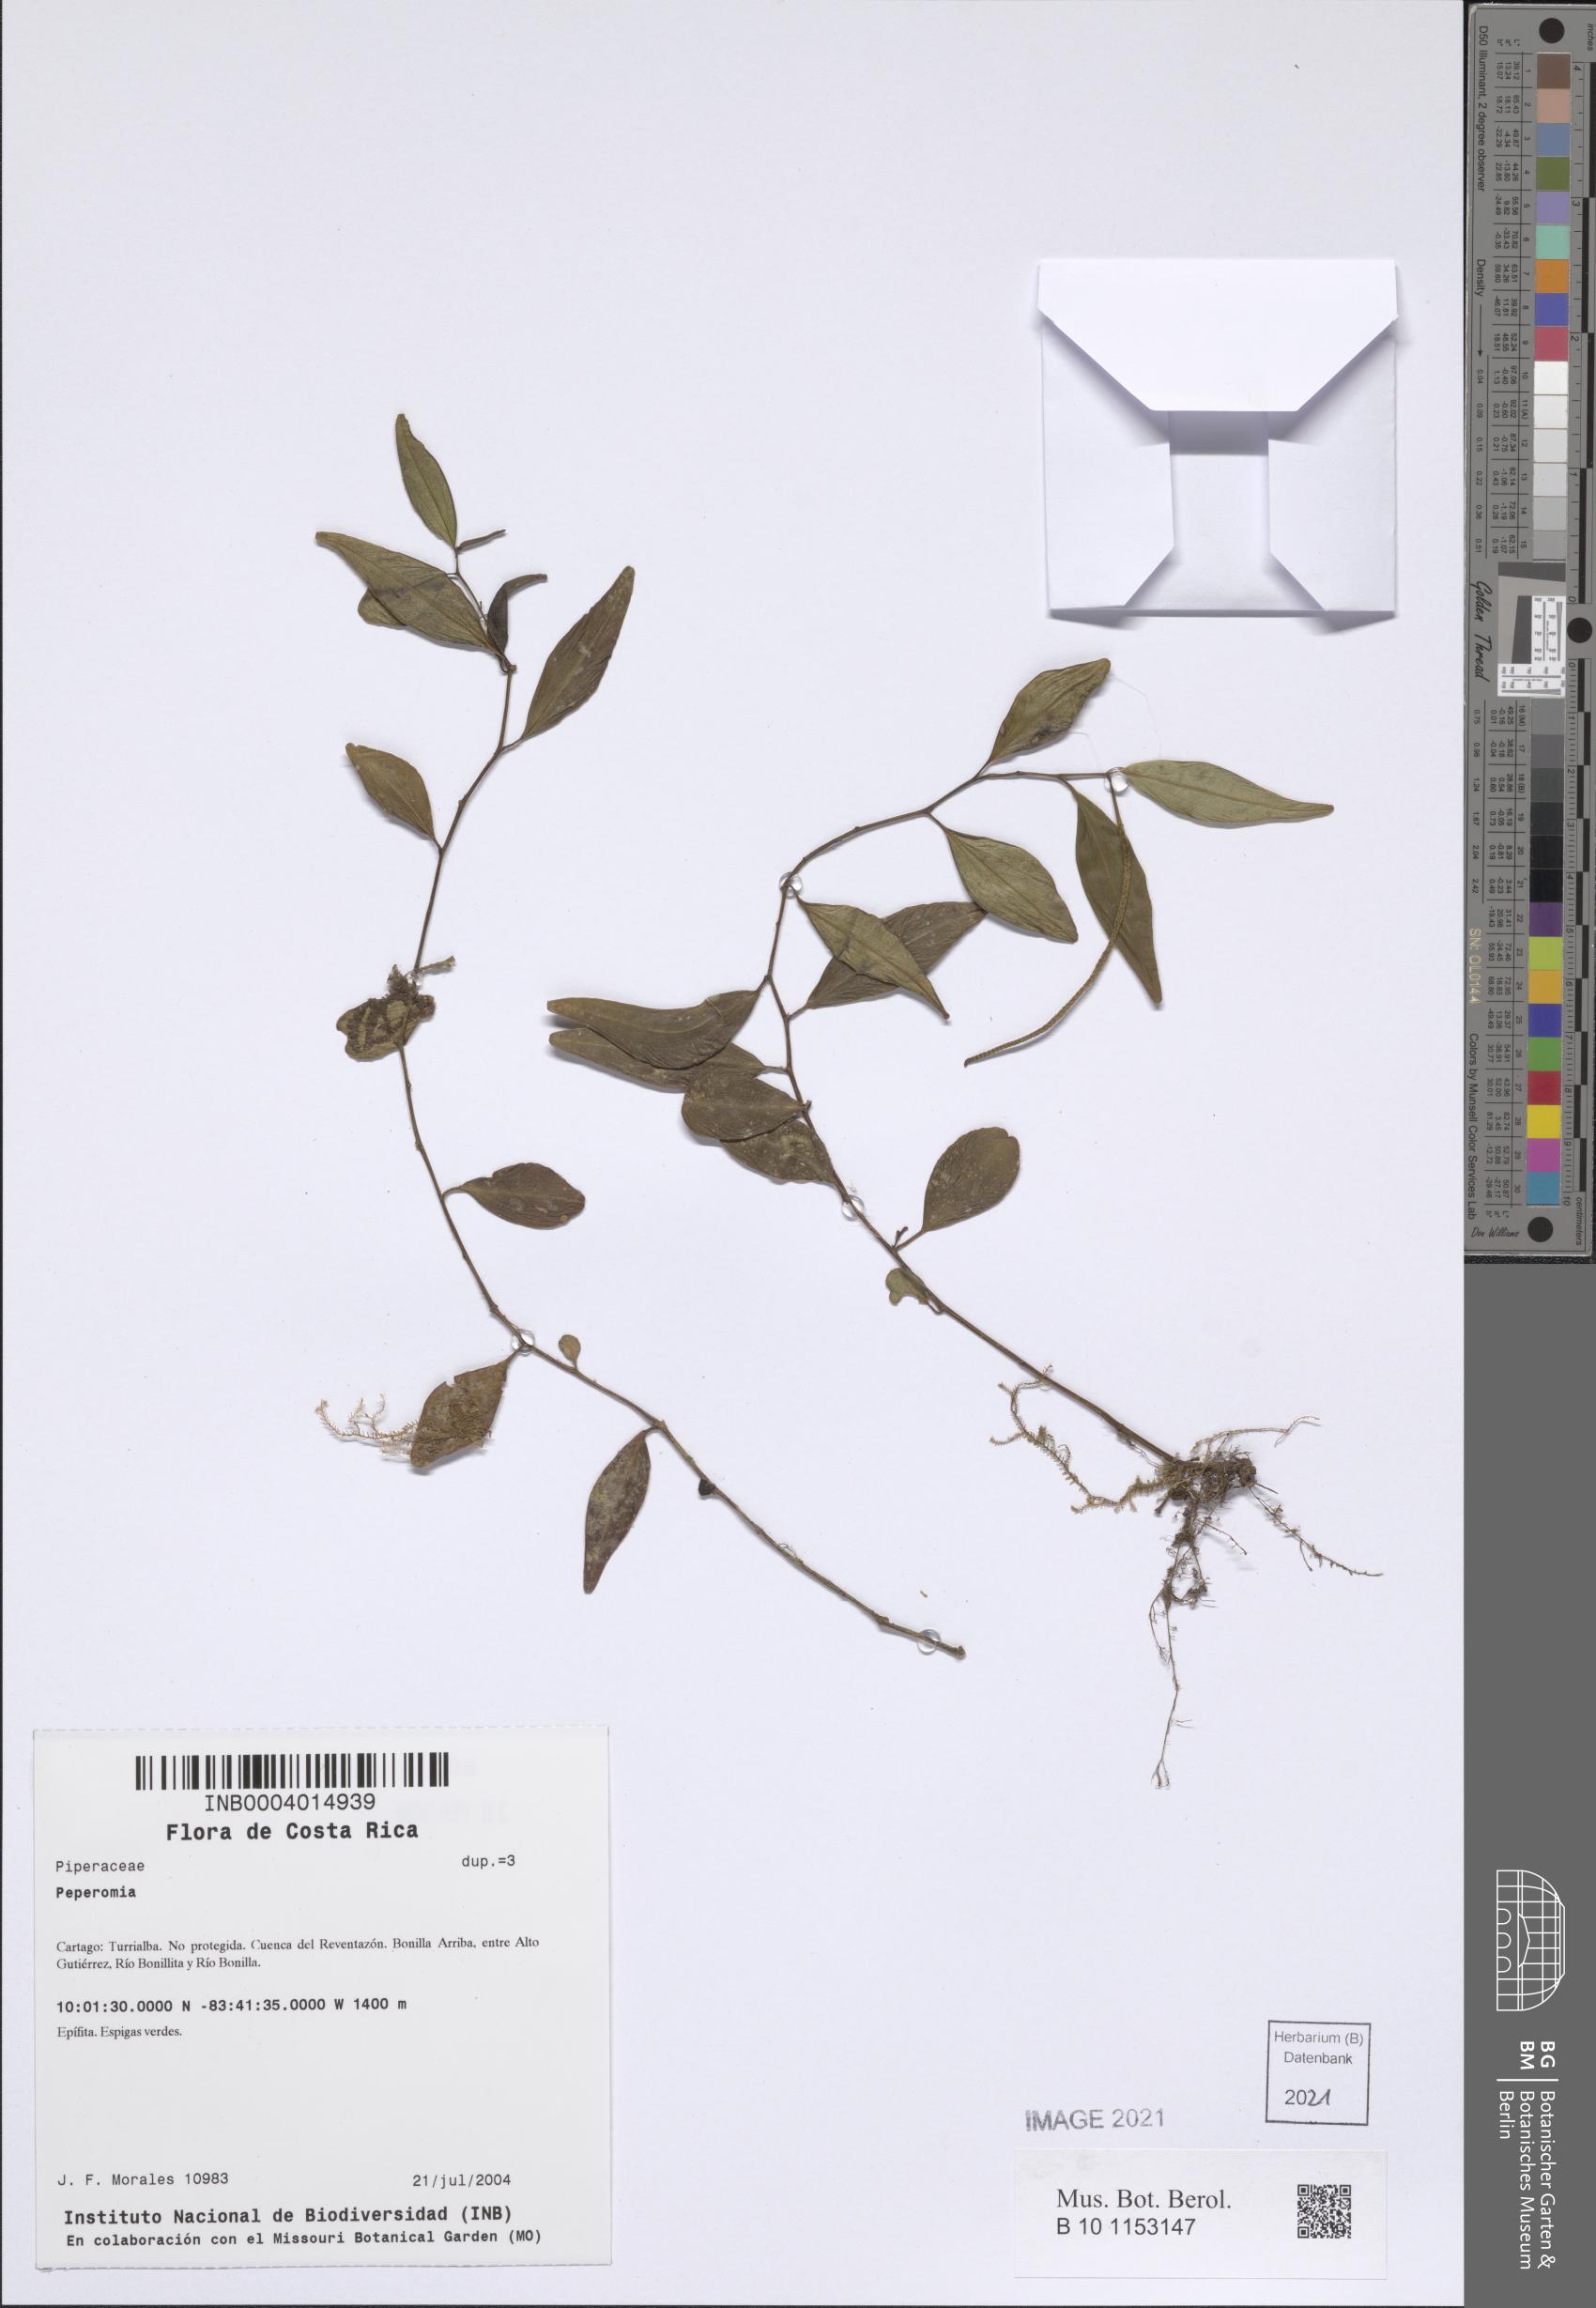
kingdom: Plantae
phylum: Tracheophyta
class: Magnoliopsida
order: Piperales
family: Piperaceae
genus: Peperomia
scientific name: Peperomia
